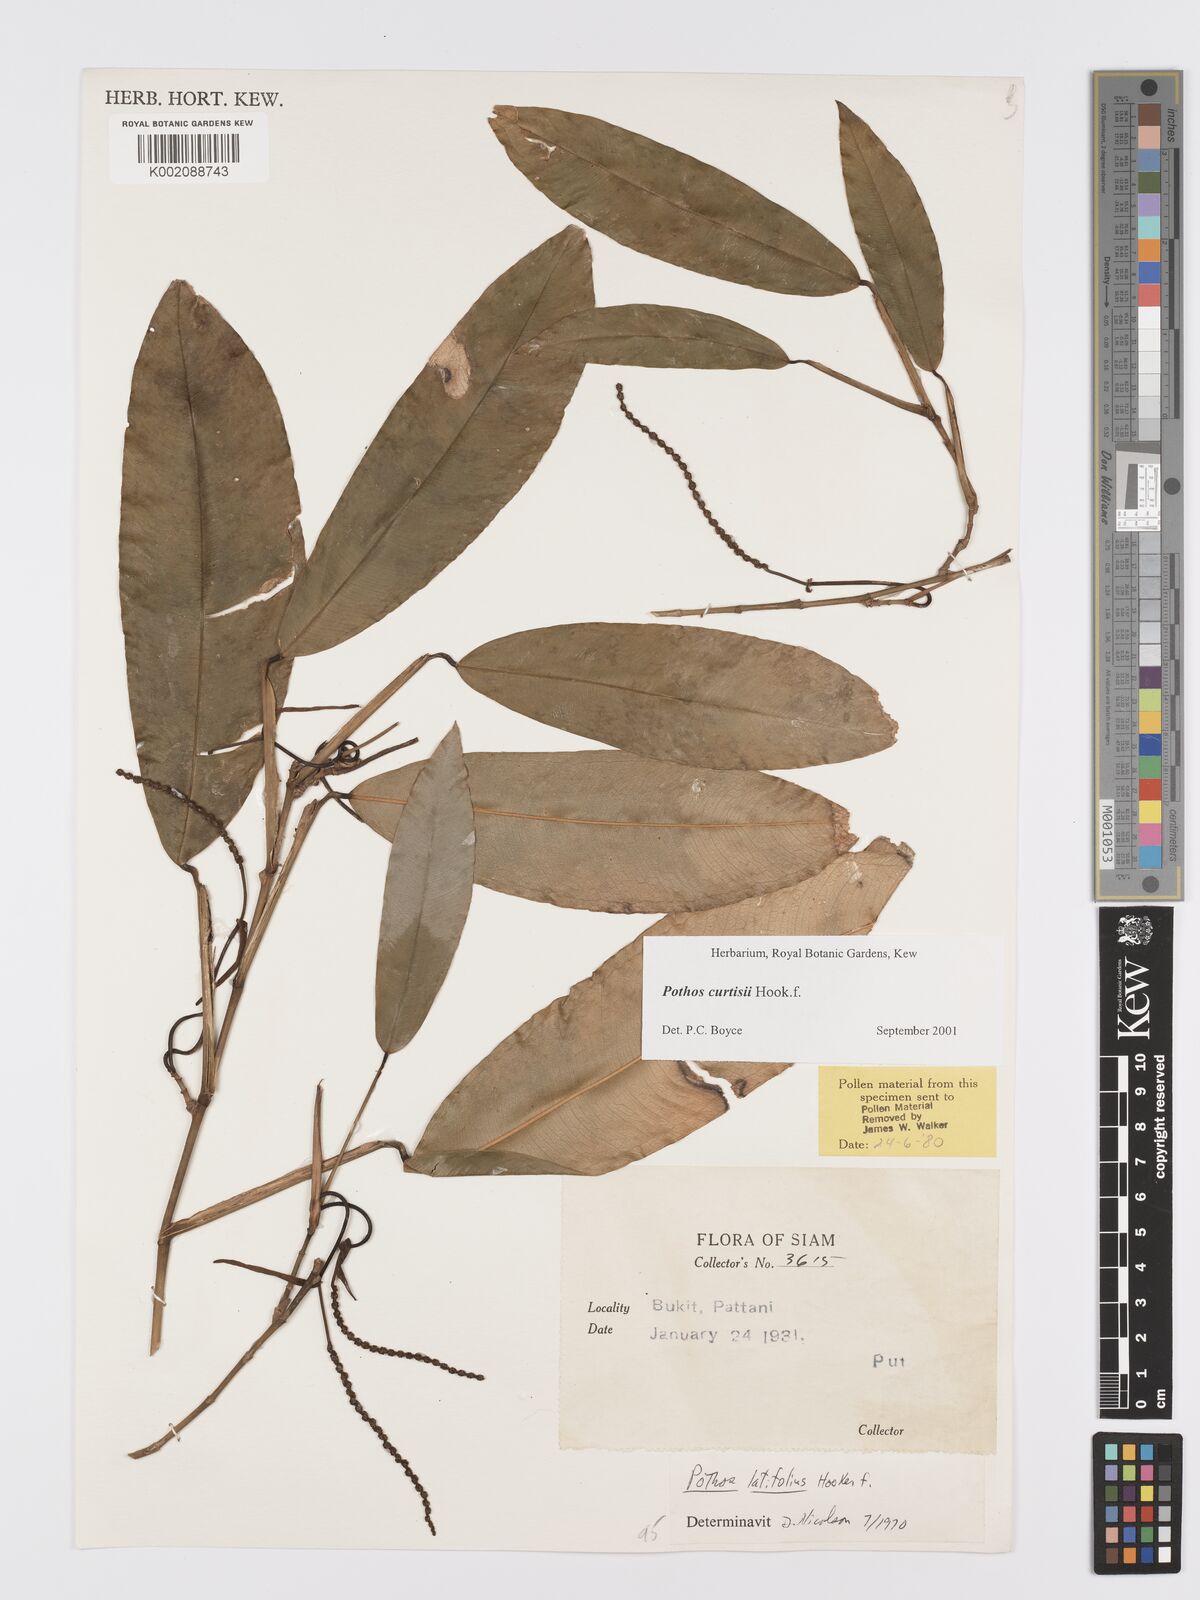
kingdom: Plantae
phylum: Tracheophyta
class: Liliopsida
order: Alismatales
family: Araceae
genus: Pothos
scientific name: Pothos curtisii
